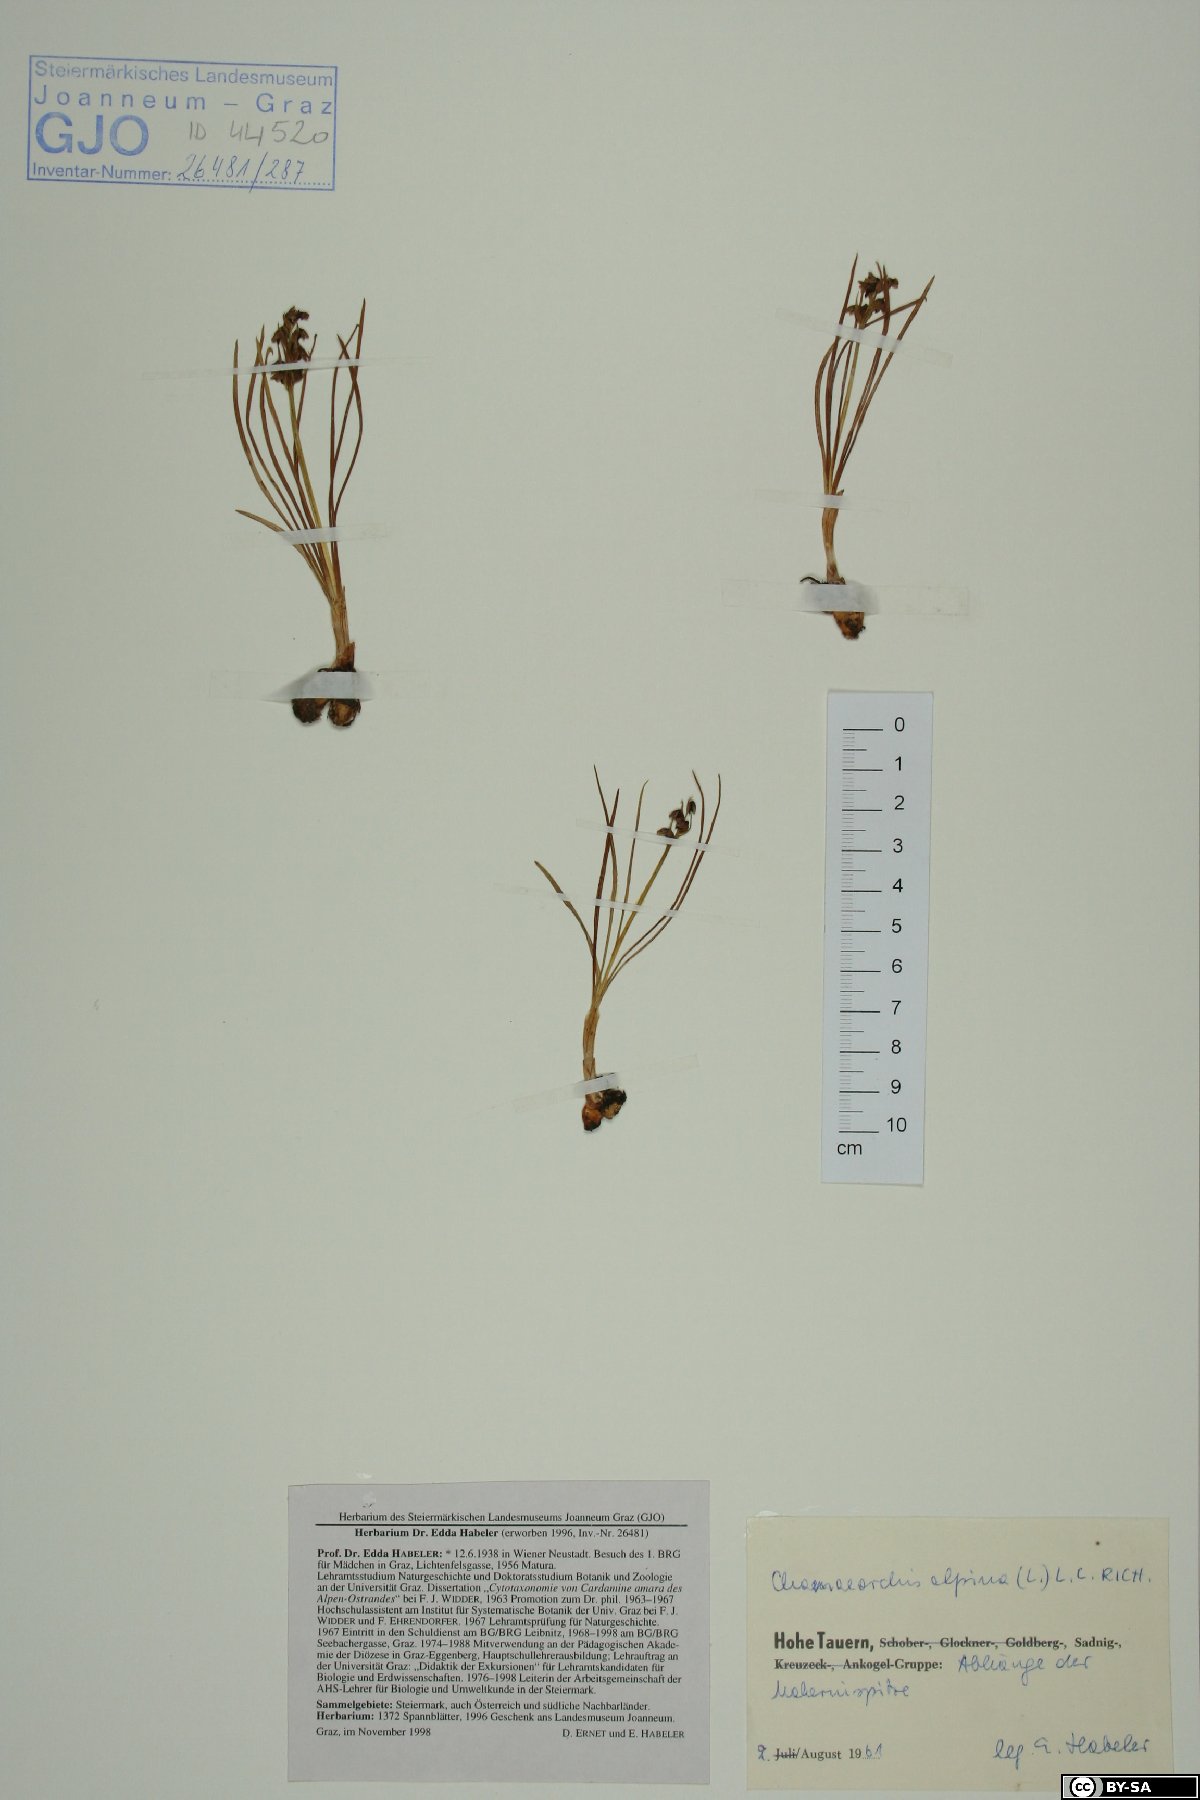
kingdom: Plantae
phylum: Tracheophyta
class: Liliopsida
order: Asparagales
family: Orchidaceae
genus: Chamorchis
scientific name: Chamorchis alpina
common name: Alpine chamorchis
